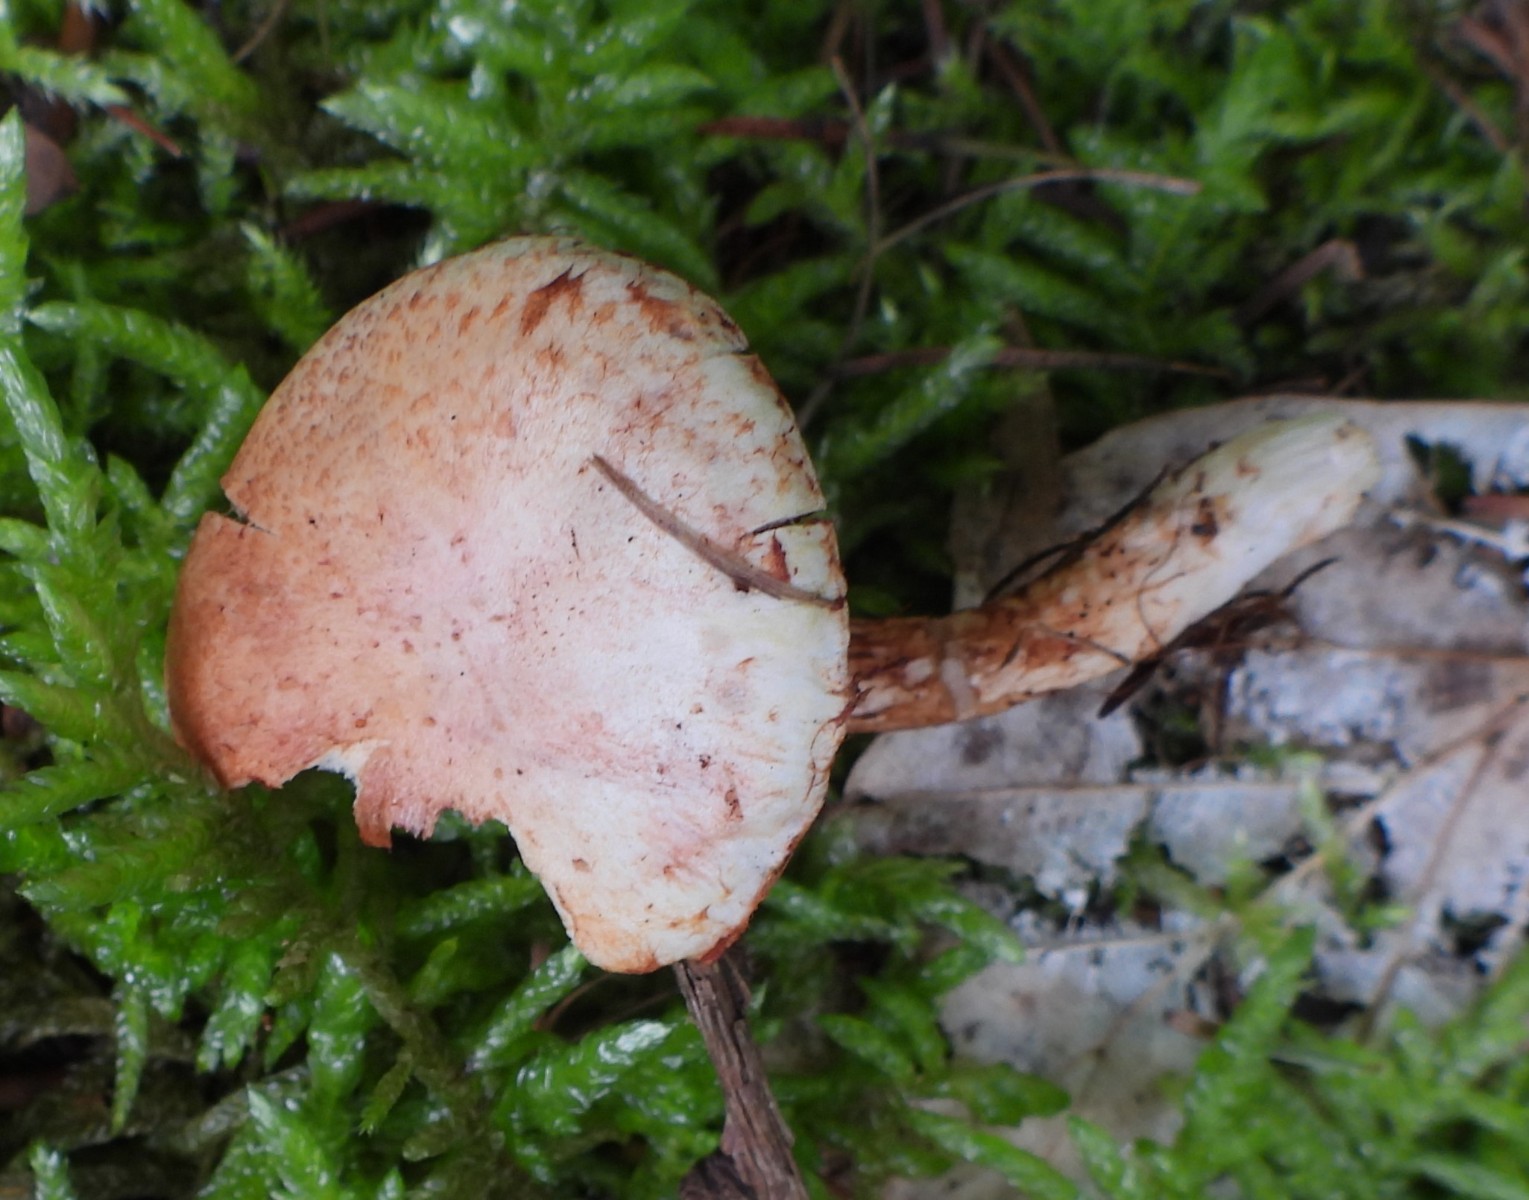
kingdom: Fungi
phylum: Basidiomycota
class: Agaricomycetes
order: Agaricales
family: Cortinariaceae
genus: Cortinarius
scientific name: Cortinarius bolaris
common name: cinnoberskællet slørhat
